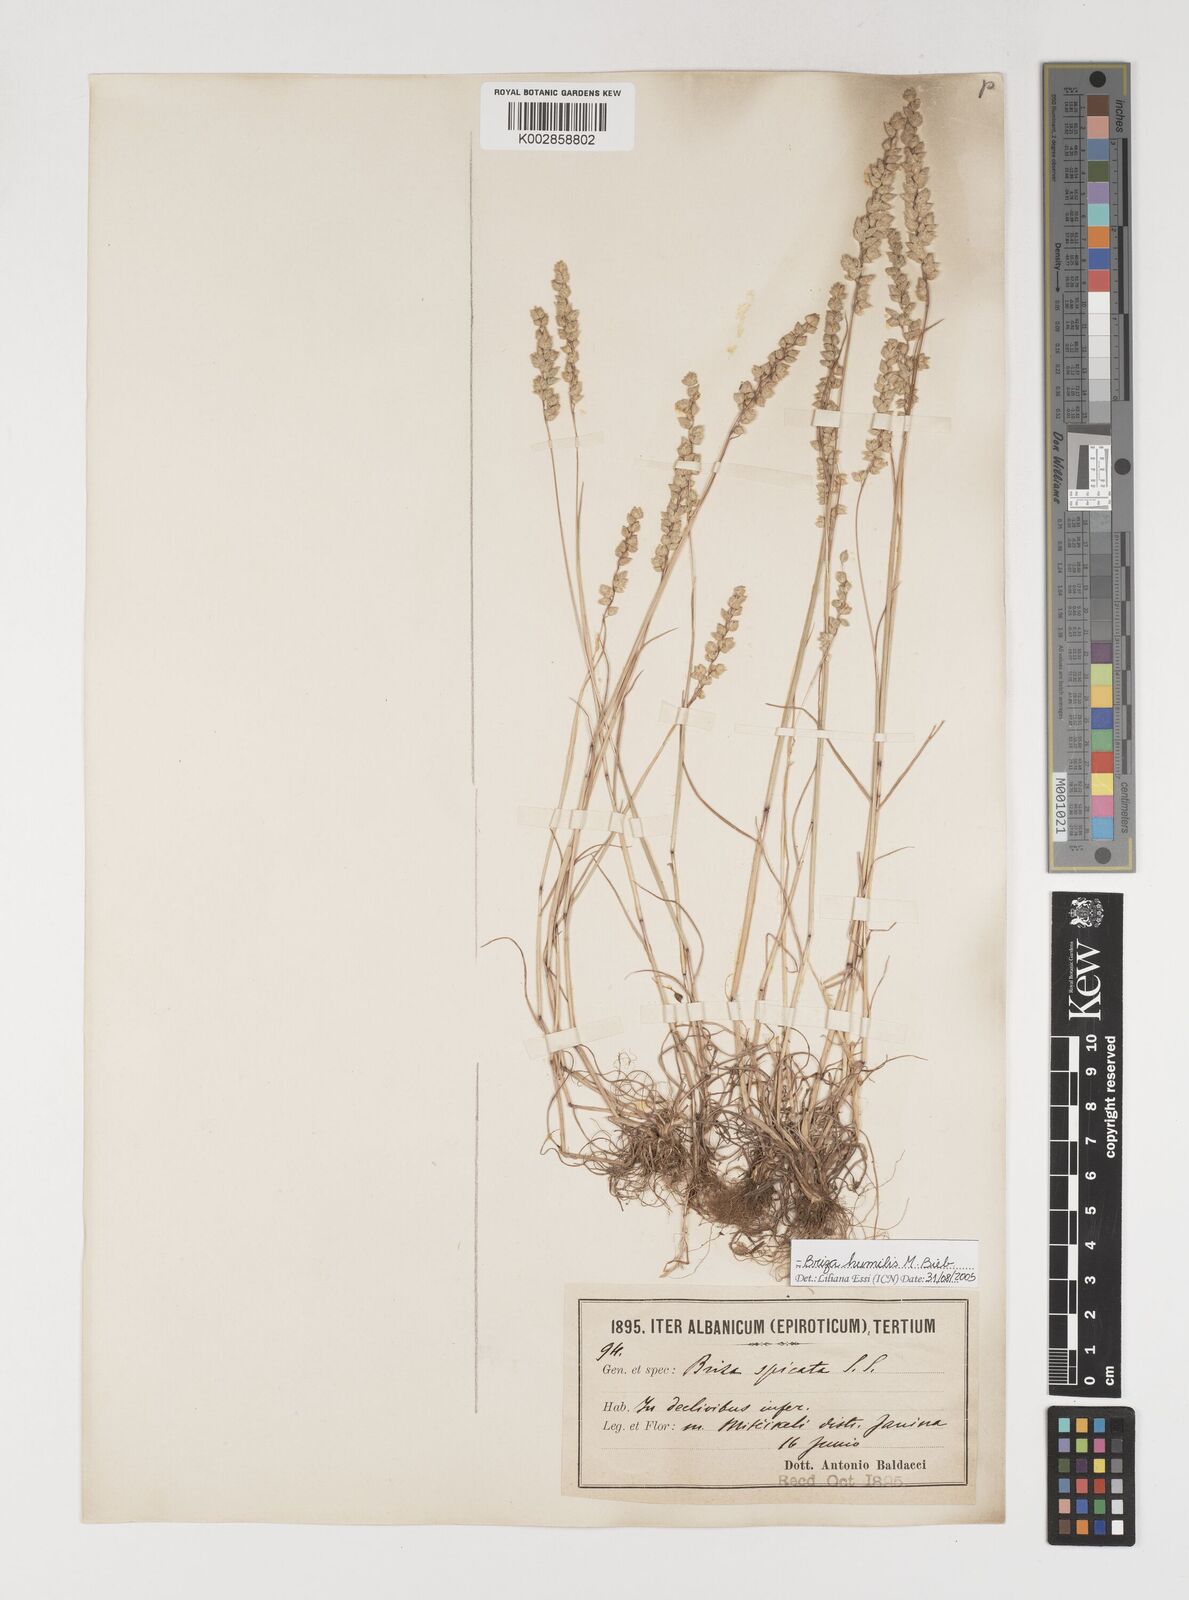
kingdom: Plantae
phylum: Tracheophyta
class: Liliopsida
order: Poales
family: Poaceae
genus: Briza
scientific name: Briza humilis
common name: Spiked quaking grass
